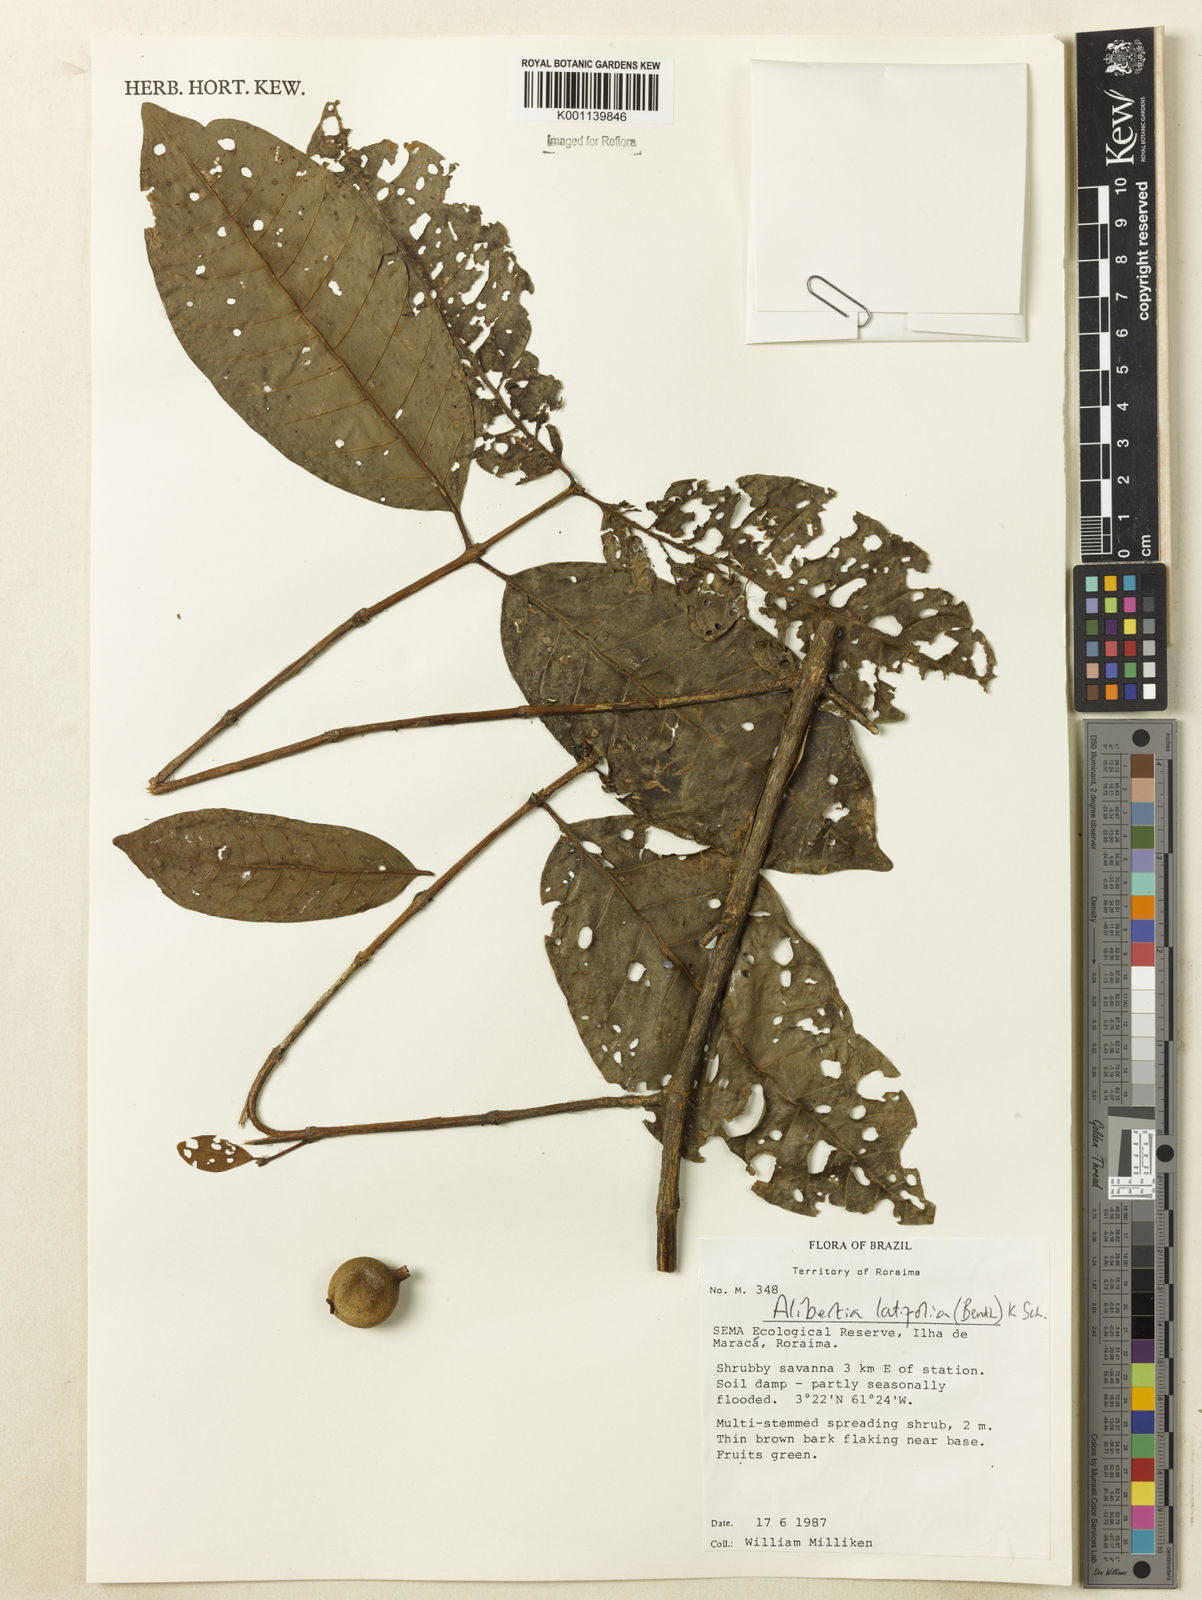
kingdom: Plantae
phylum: Tracheophyta
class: Magnoliopsida
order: Gentianales
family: Rubiaceae
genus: Alibertia
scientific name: Alibertia latifolia
